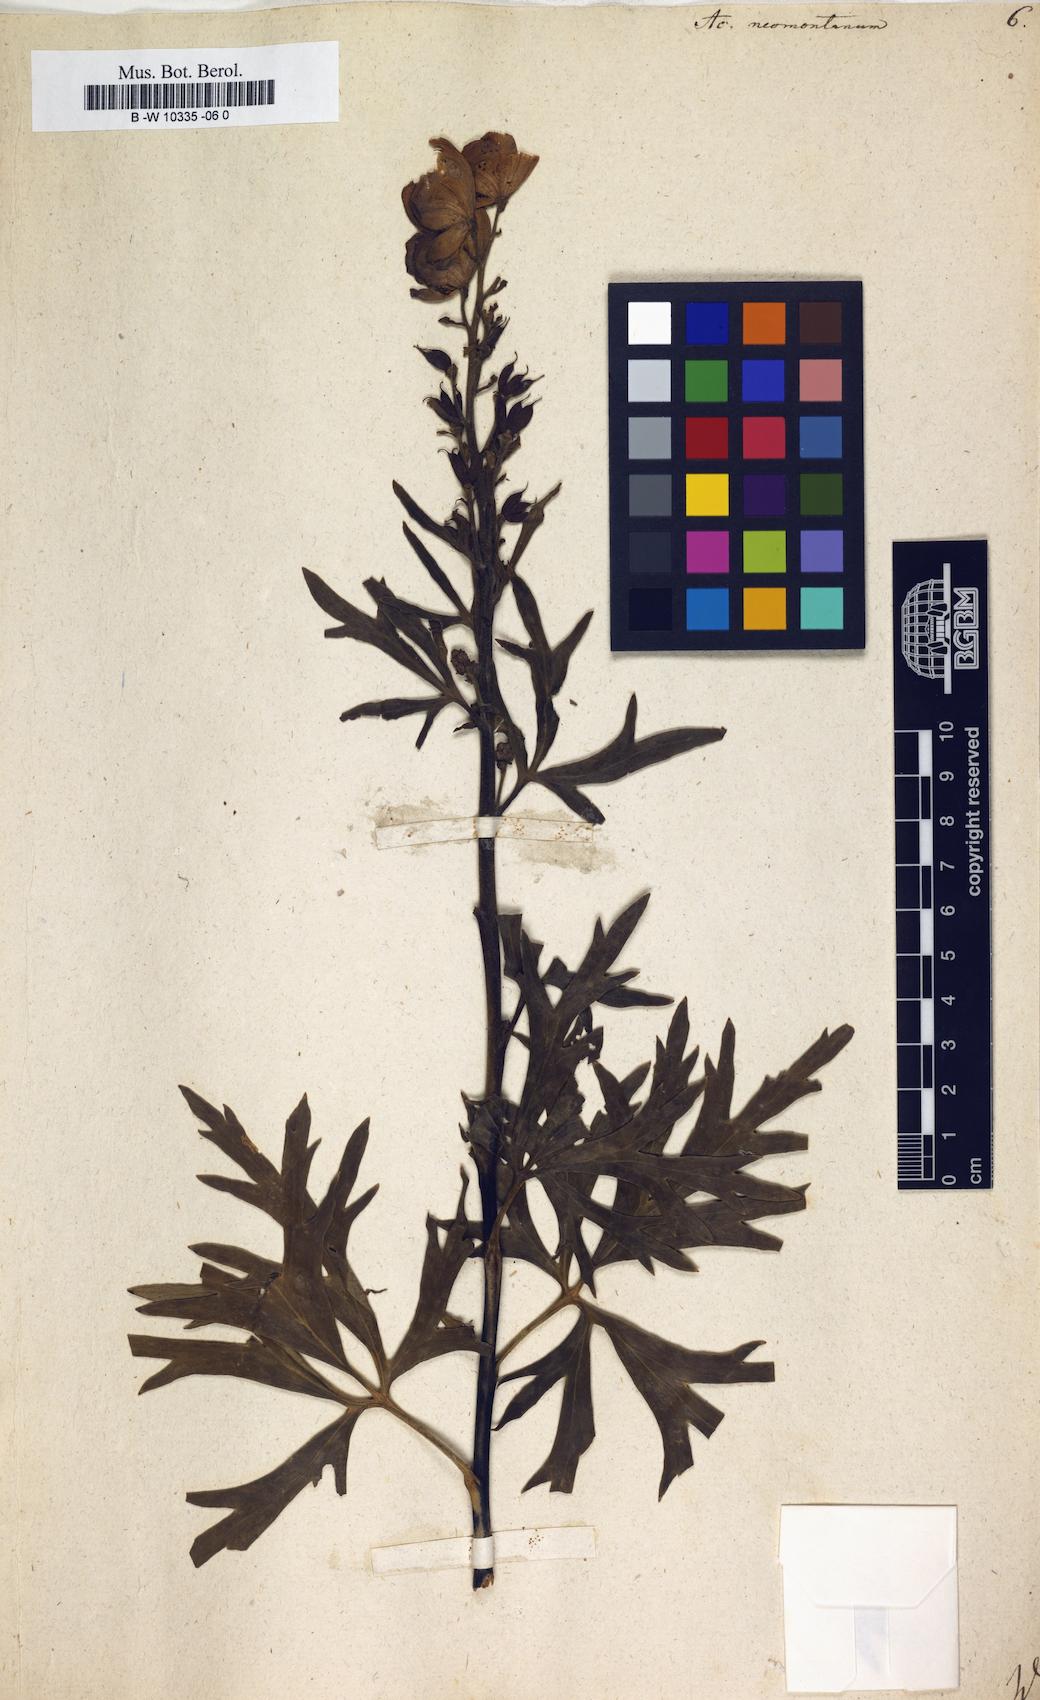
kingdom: Plantae
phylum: Tracheophyta
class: Magnoliopsida
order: Ranunculales
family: Ranunculaceae
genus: Aconitum
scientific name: Aconitum napellus
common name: Garden monkshood
